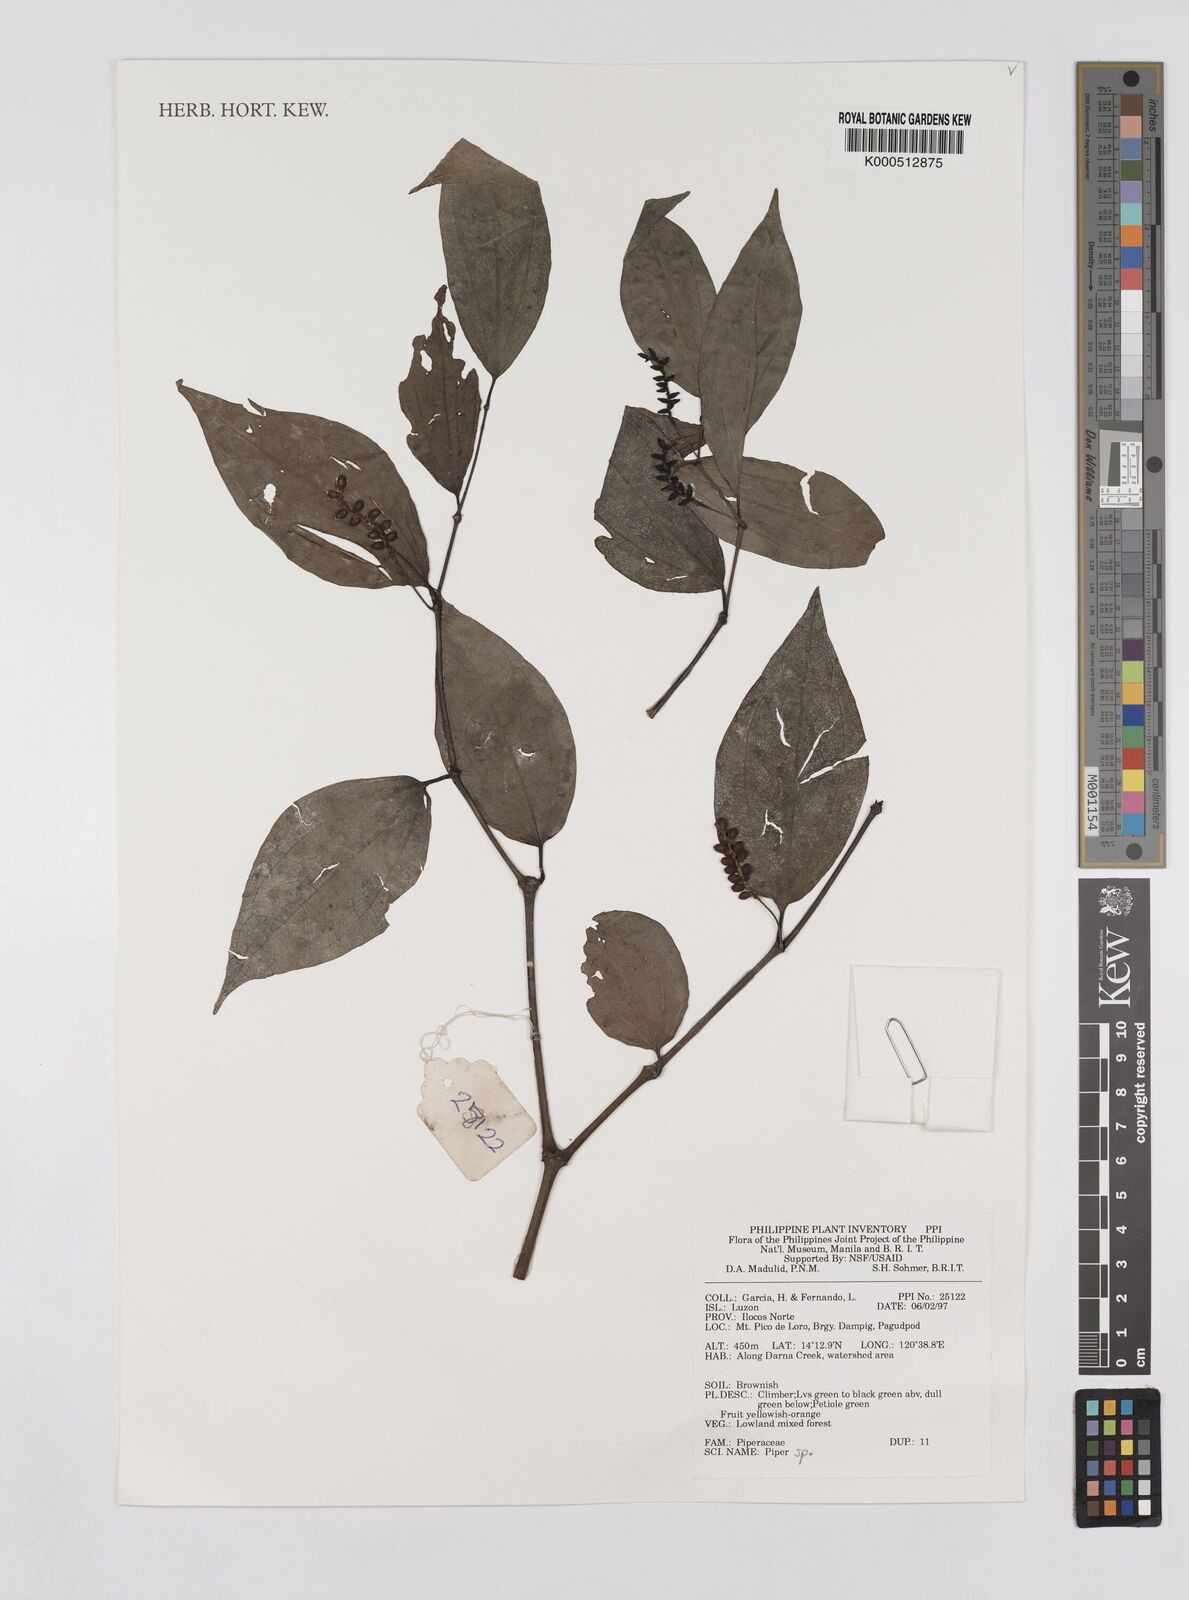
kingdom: Plantae
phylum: Tracheophyta
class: Magnoliopsida
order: Piperales
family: Piperaceae
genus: Piper
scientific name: Piper
